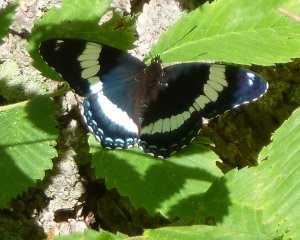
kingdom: Animalia
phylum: Arthropoda
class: Insecta
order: Lepidoptera
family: Nymphalidae
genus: Limenitis
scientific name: Limenitis arthemis
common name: Red-spotted Admiral
